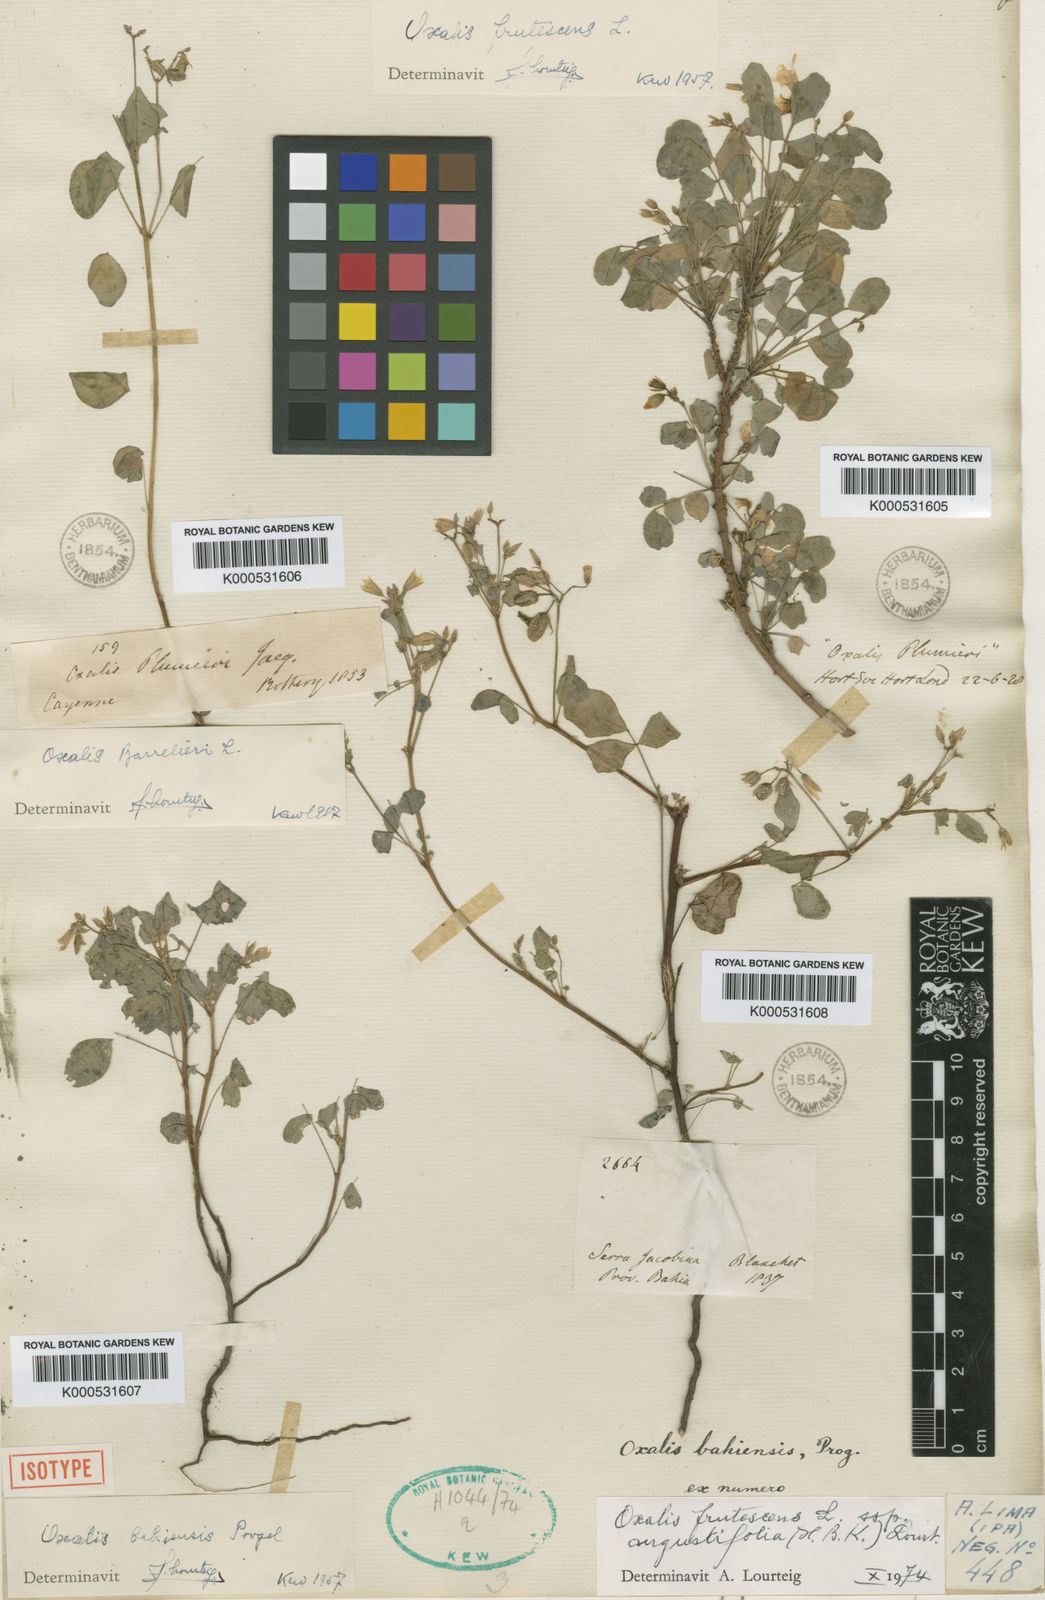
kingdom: Plantae
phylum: Tracheophyta
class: Magnoliopsida
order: Oxalidales
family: Oxalidaceae
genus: Oxalis
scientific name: Oxalis frutescens
